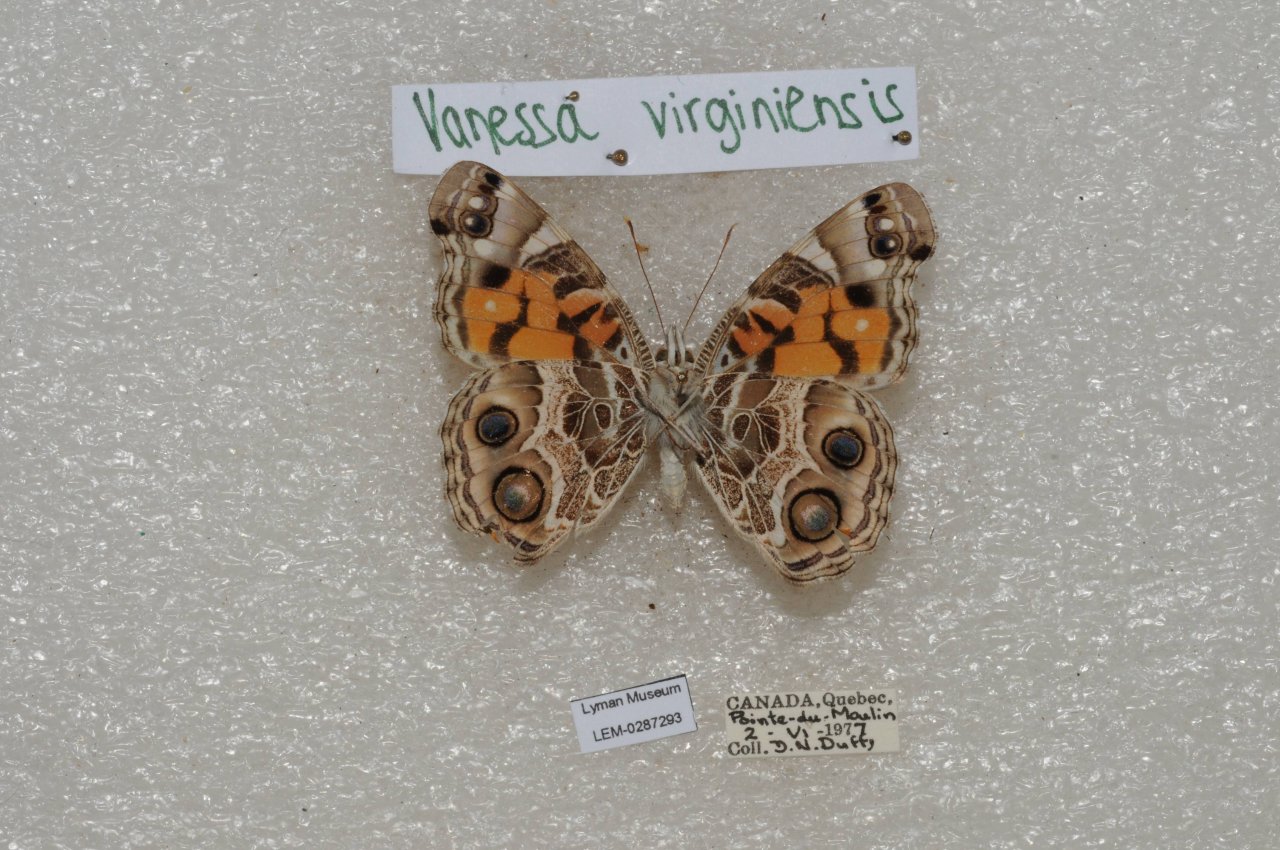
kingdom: Animalia
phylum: Arthropoda
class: Insecta
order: Lepidoptera
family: Nymphalidae
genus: Vanessa
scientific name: Vanessa virginiensis
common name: American Lady
